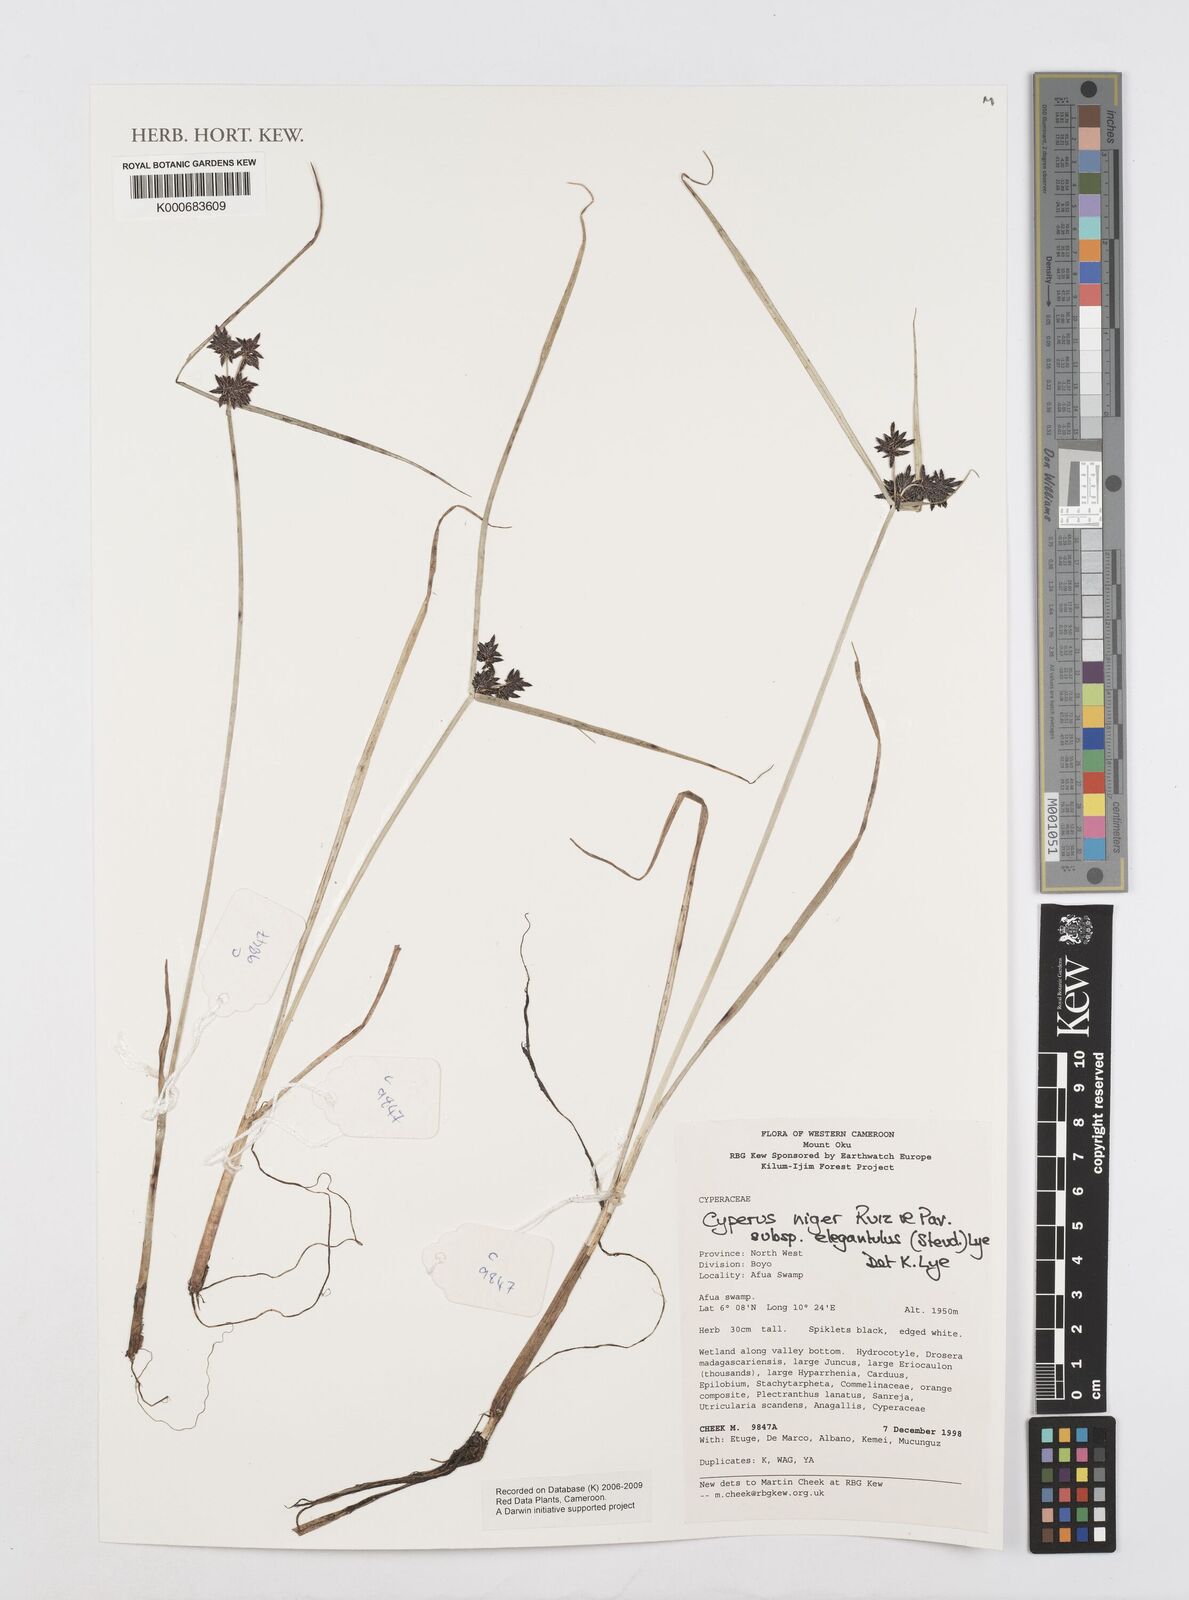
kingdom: Plantae
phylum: Tracheophyta
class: Liliopsida
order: Poales
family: Cyperaceae
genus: Cyperus
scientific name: Cyperus elegantulus
